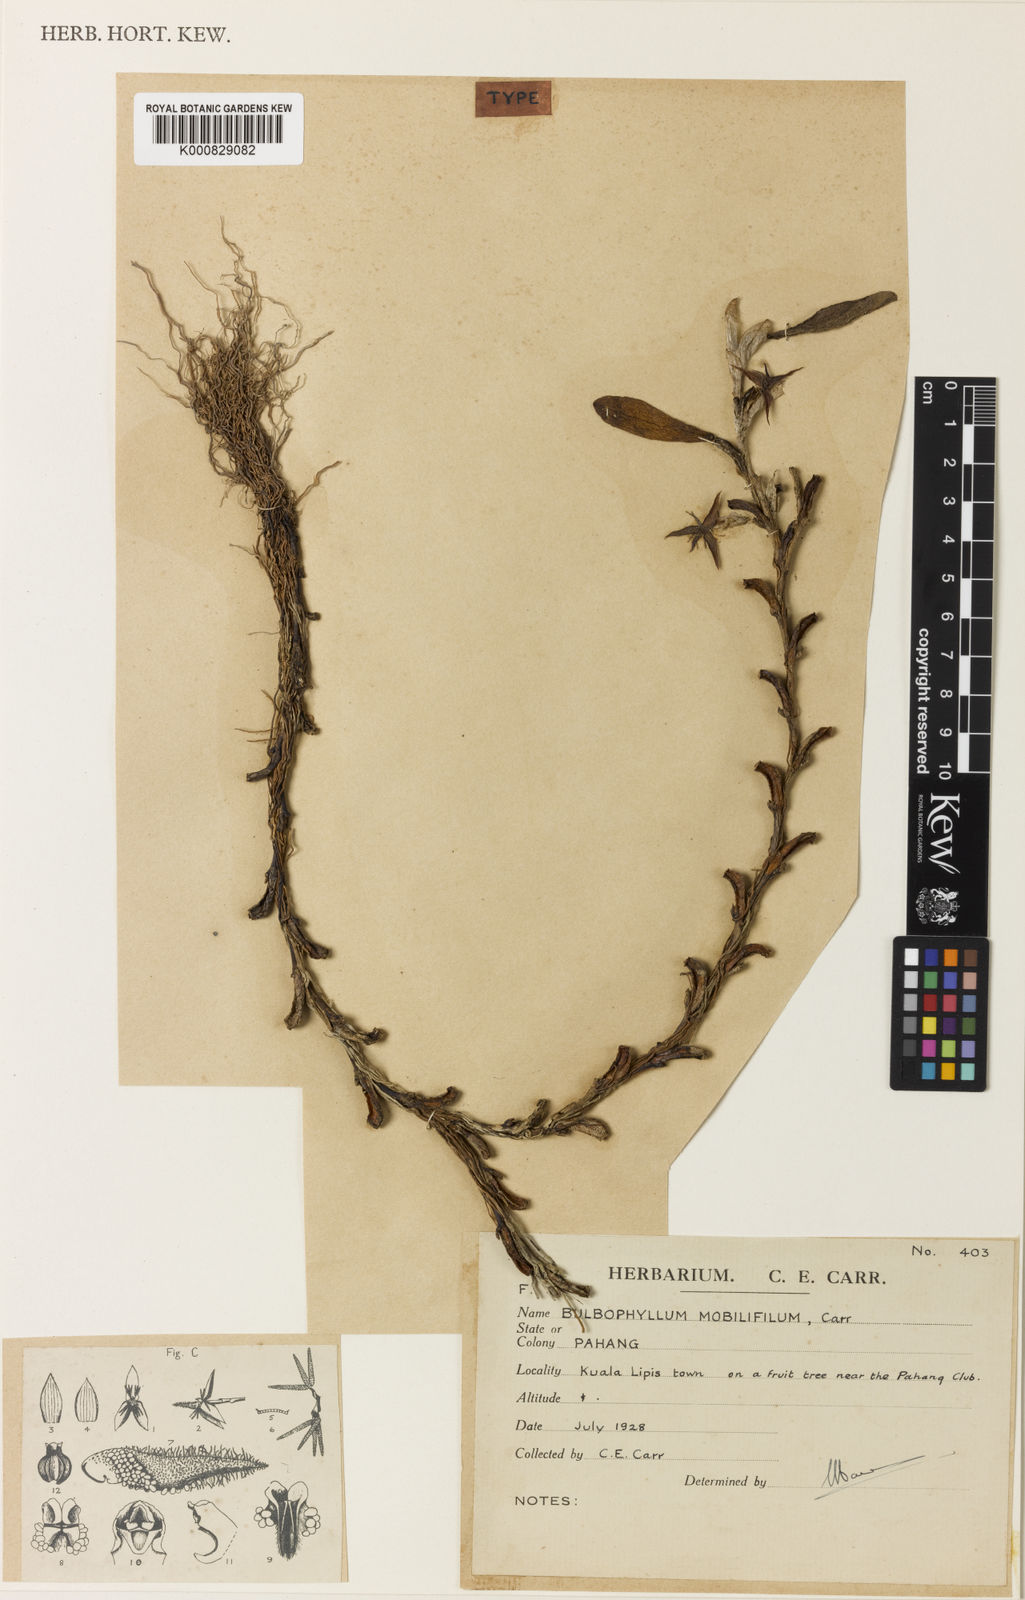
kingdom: Plantae
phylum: Tracheophyta
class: Liliopsida
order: Asparagales
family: Orchidaceae
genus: Bulbophyllum
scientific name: Bulbophyllum mobilifilum
